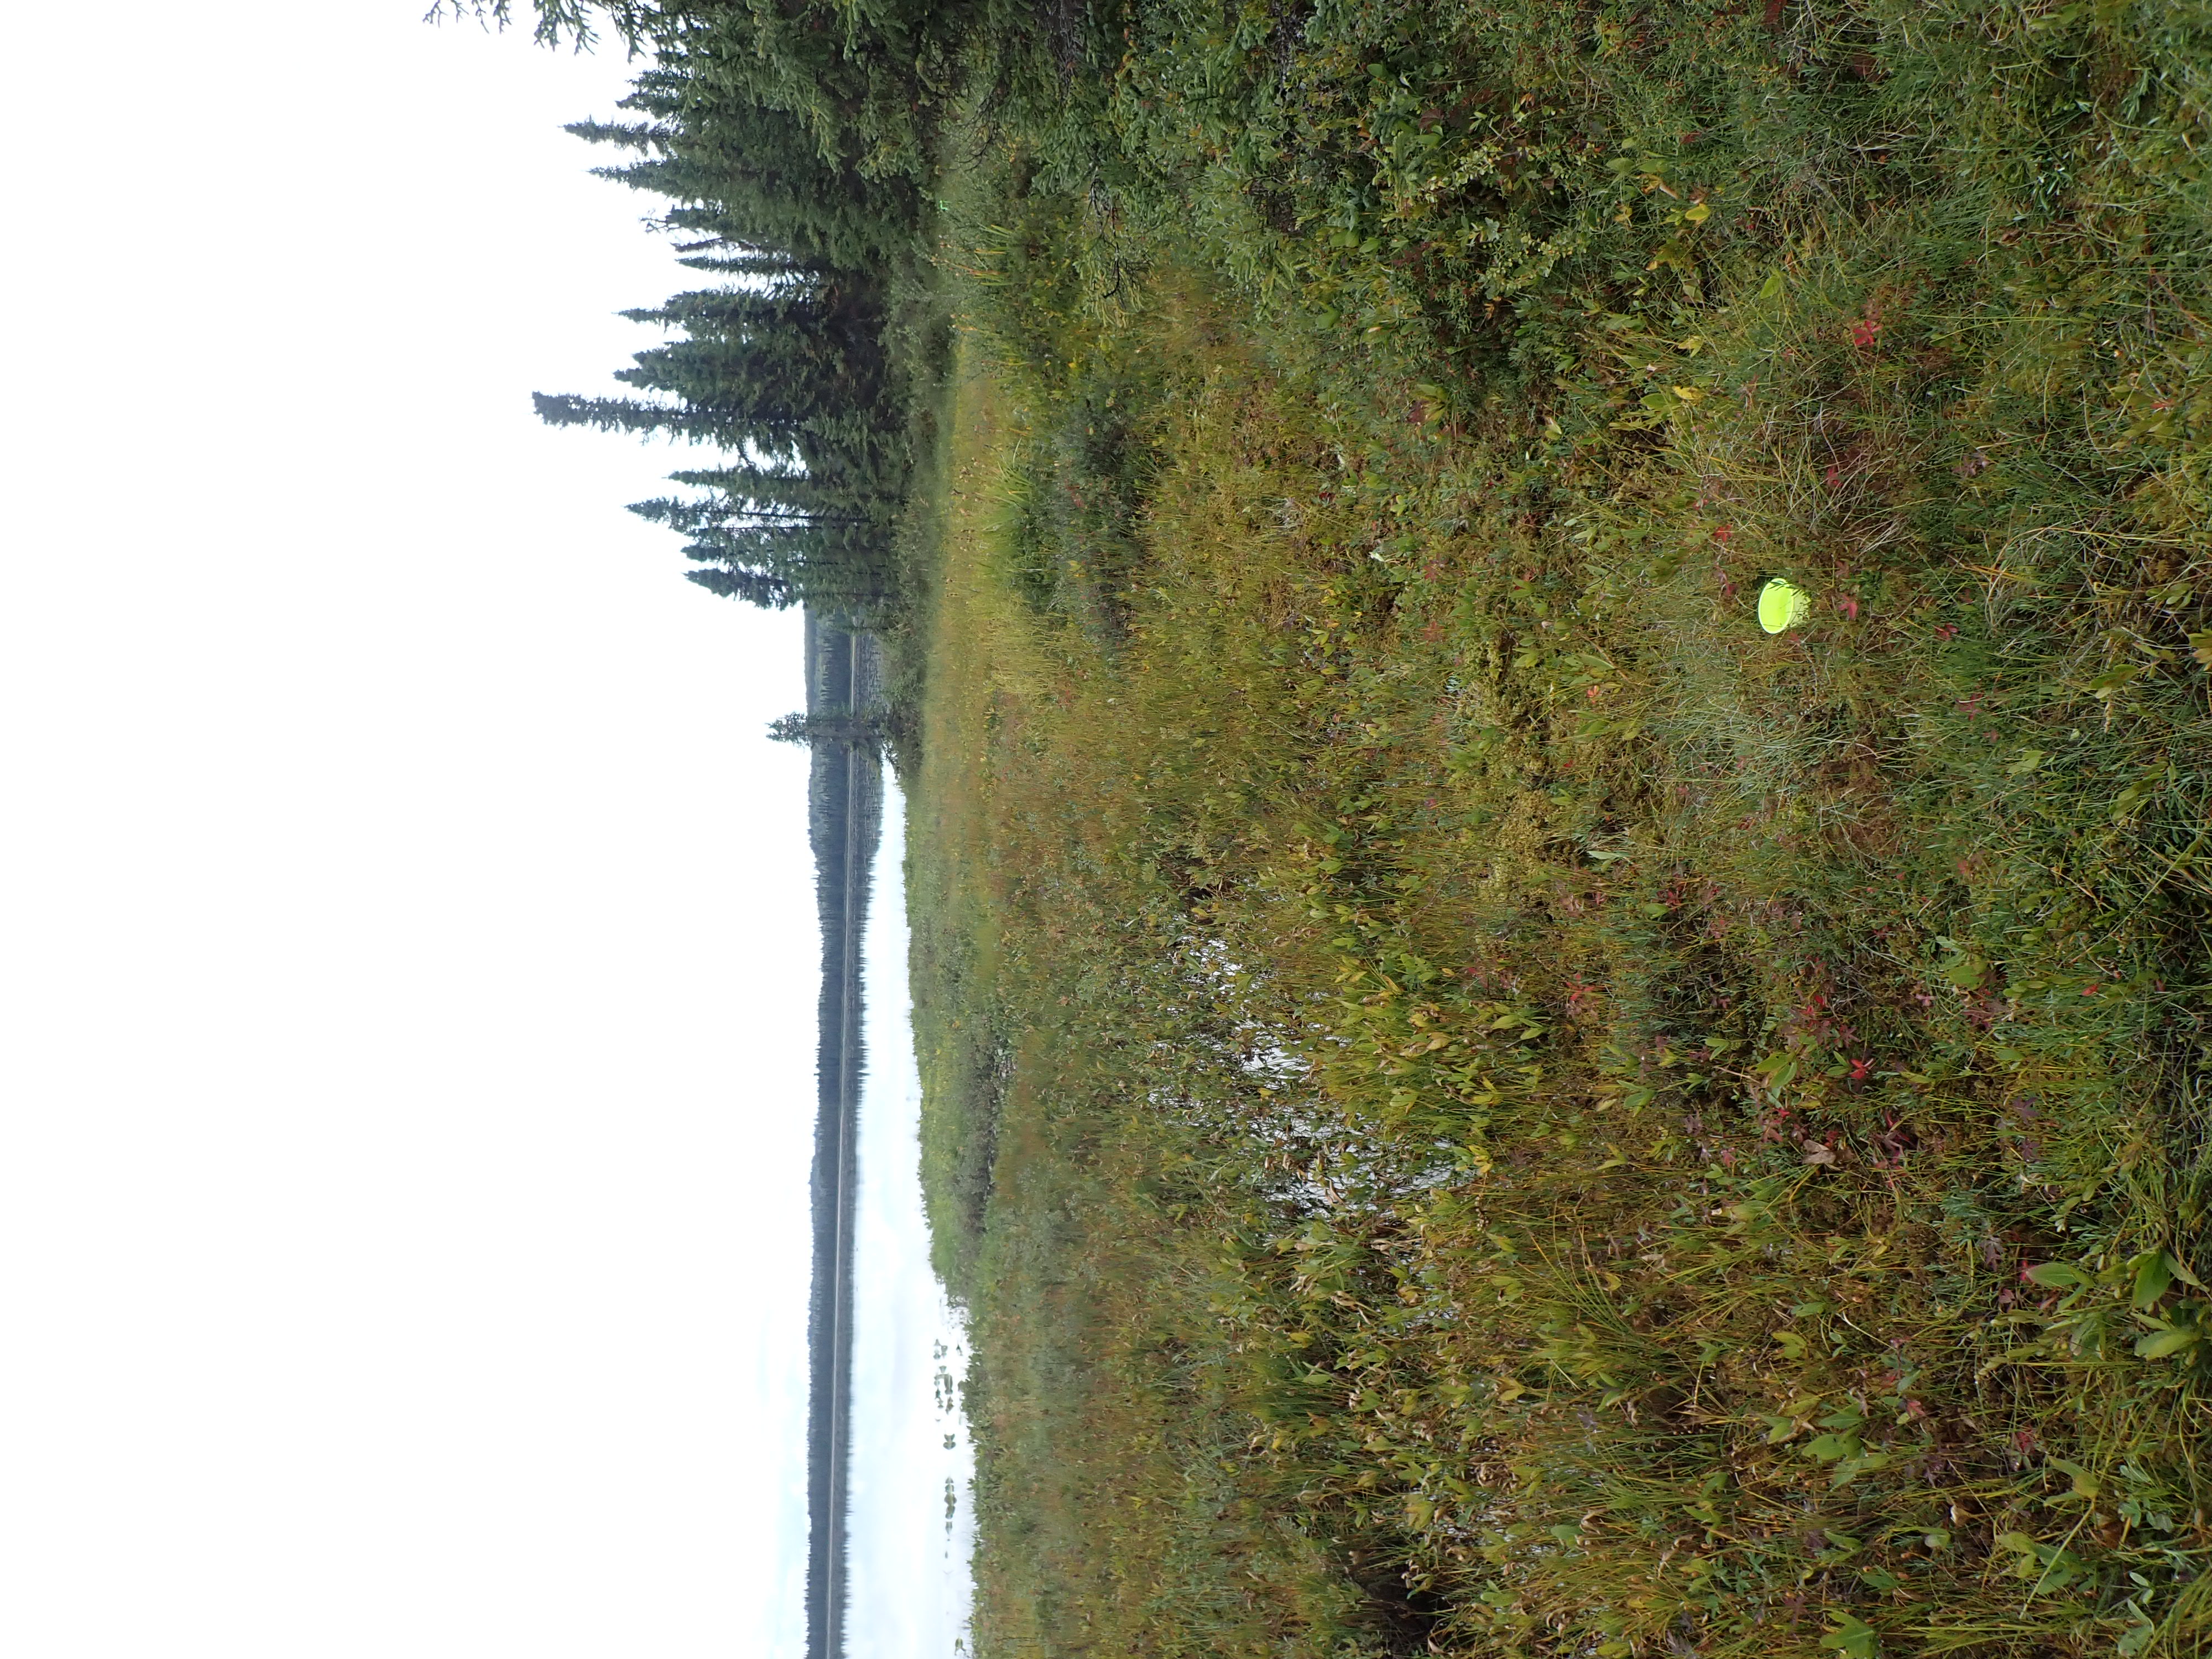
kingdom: Animalia
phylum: Arthropoda
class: Insecta
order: Diptera
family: Muscidae
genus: Spilogona
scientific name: Spilogona
